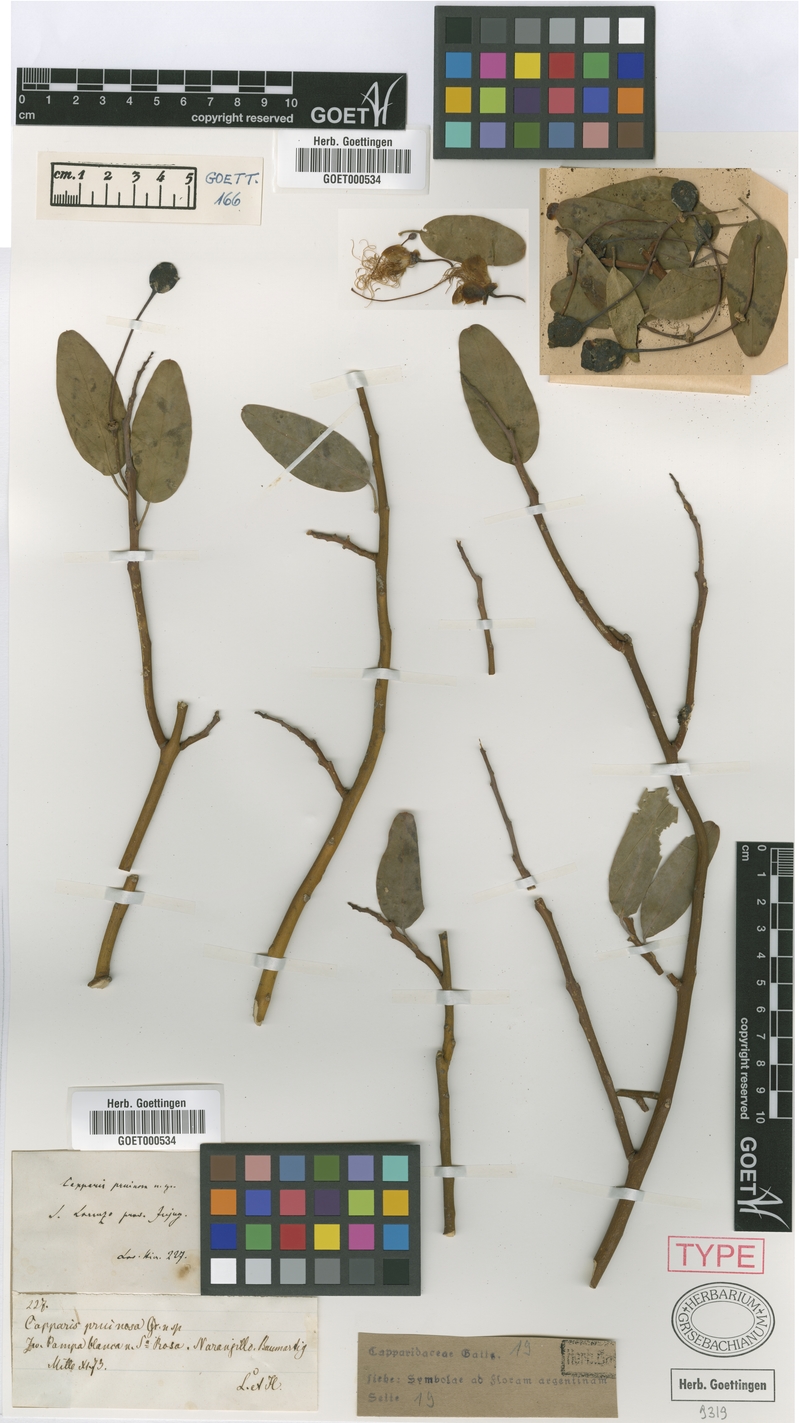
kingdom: Plantae
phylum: Tracheophyta
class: Magnoliopsida
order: Brassicales
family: Capparaceae
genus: Anisocapparis
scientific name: Anisocapparis speciosa
